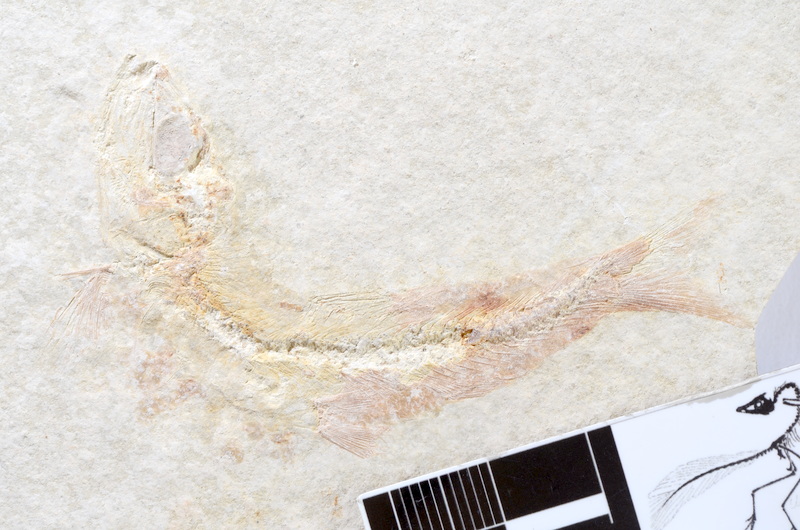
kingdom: Animalia
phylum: Chordata
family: Ascalaboidae
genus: Tharsis
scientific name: Tharsis dubius
